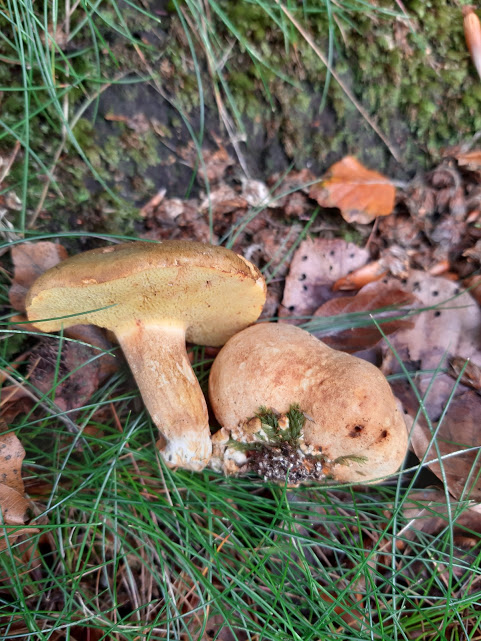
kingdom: Fungi
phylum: Basidiomycota
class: Agaricomycetes
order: Boletales
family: Boletaceae
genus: Pseudoboletus
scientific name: Pseudoboletus parasiticus
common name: snyltende rørhat
